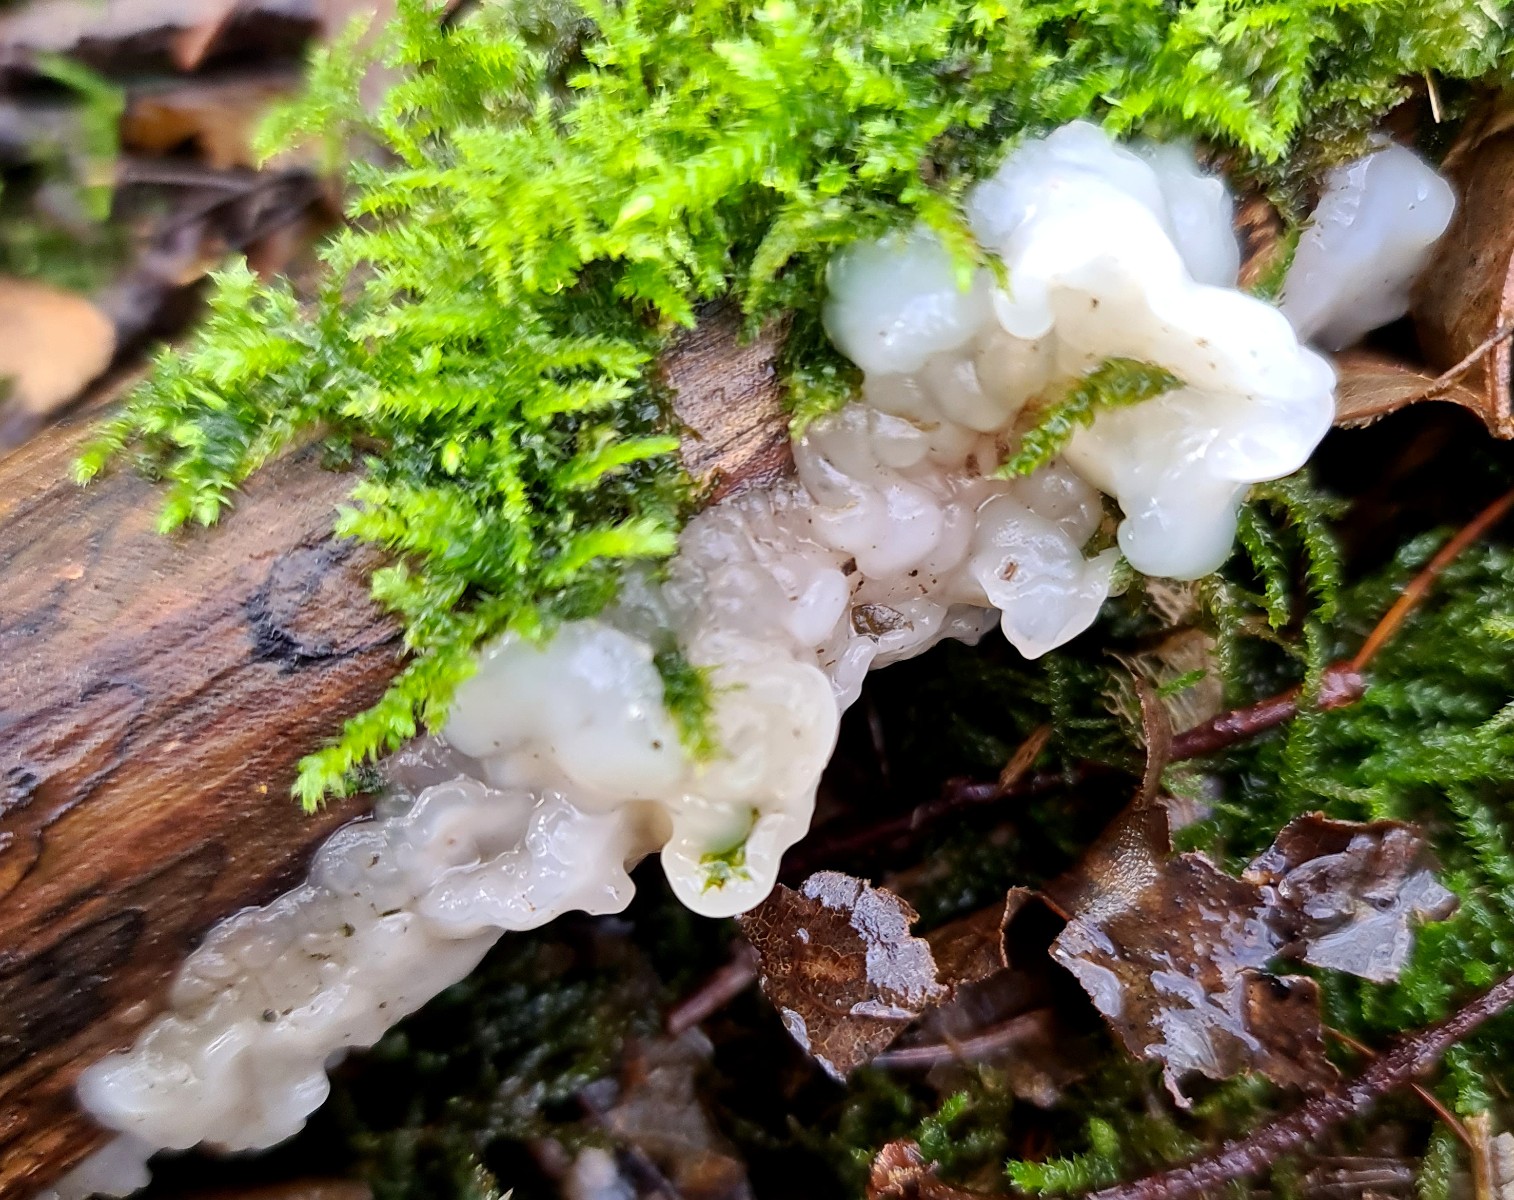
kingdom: Fungi
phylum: Basidiomycota
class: Agaricomycetes
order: Auriculariales
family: Hyaloriaceae
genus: Myxarium
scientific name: Myxarium nucleatum
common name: klar bævretop
